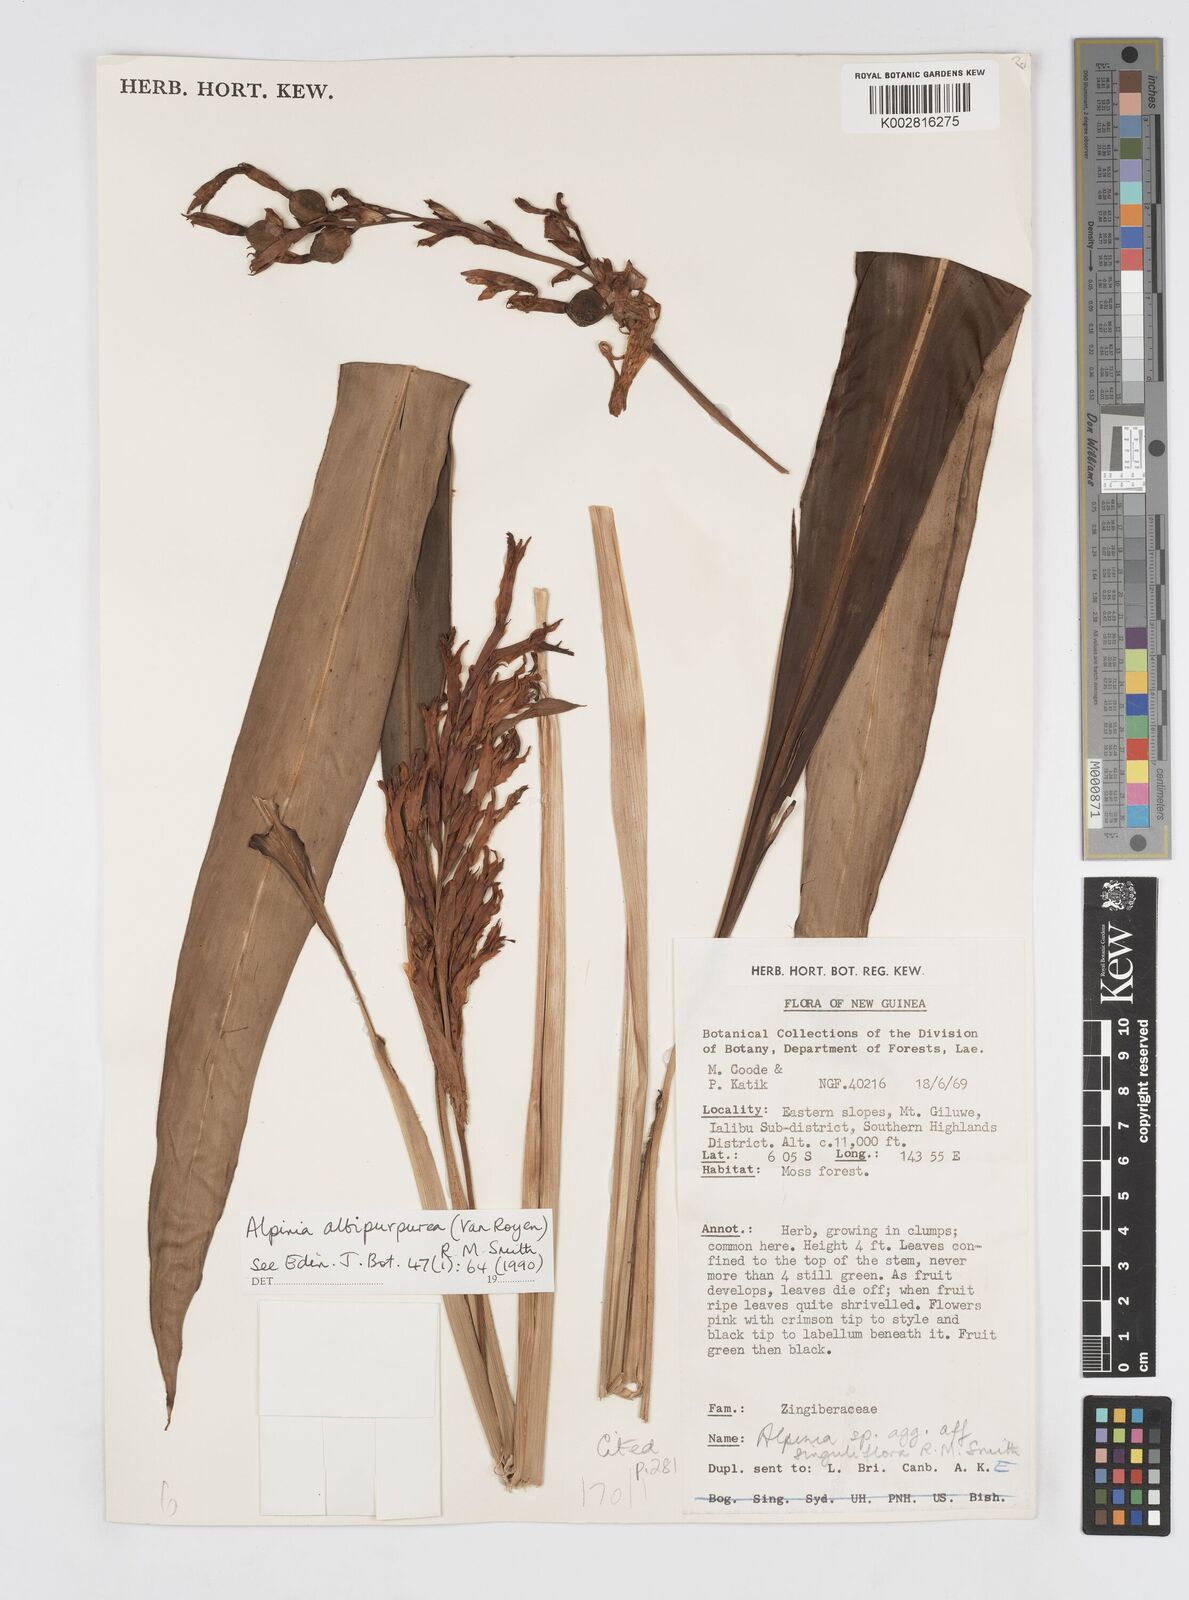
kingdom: Plantae
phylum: Tracheophyta
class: Liliopsida
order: Zingiberales
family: Zingiberaceae
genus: Alpinia
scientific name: Alpinia albipurpurea
